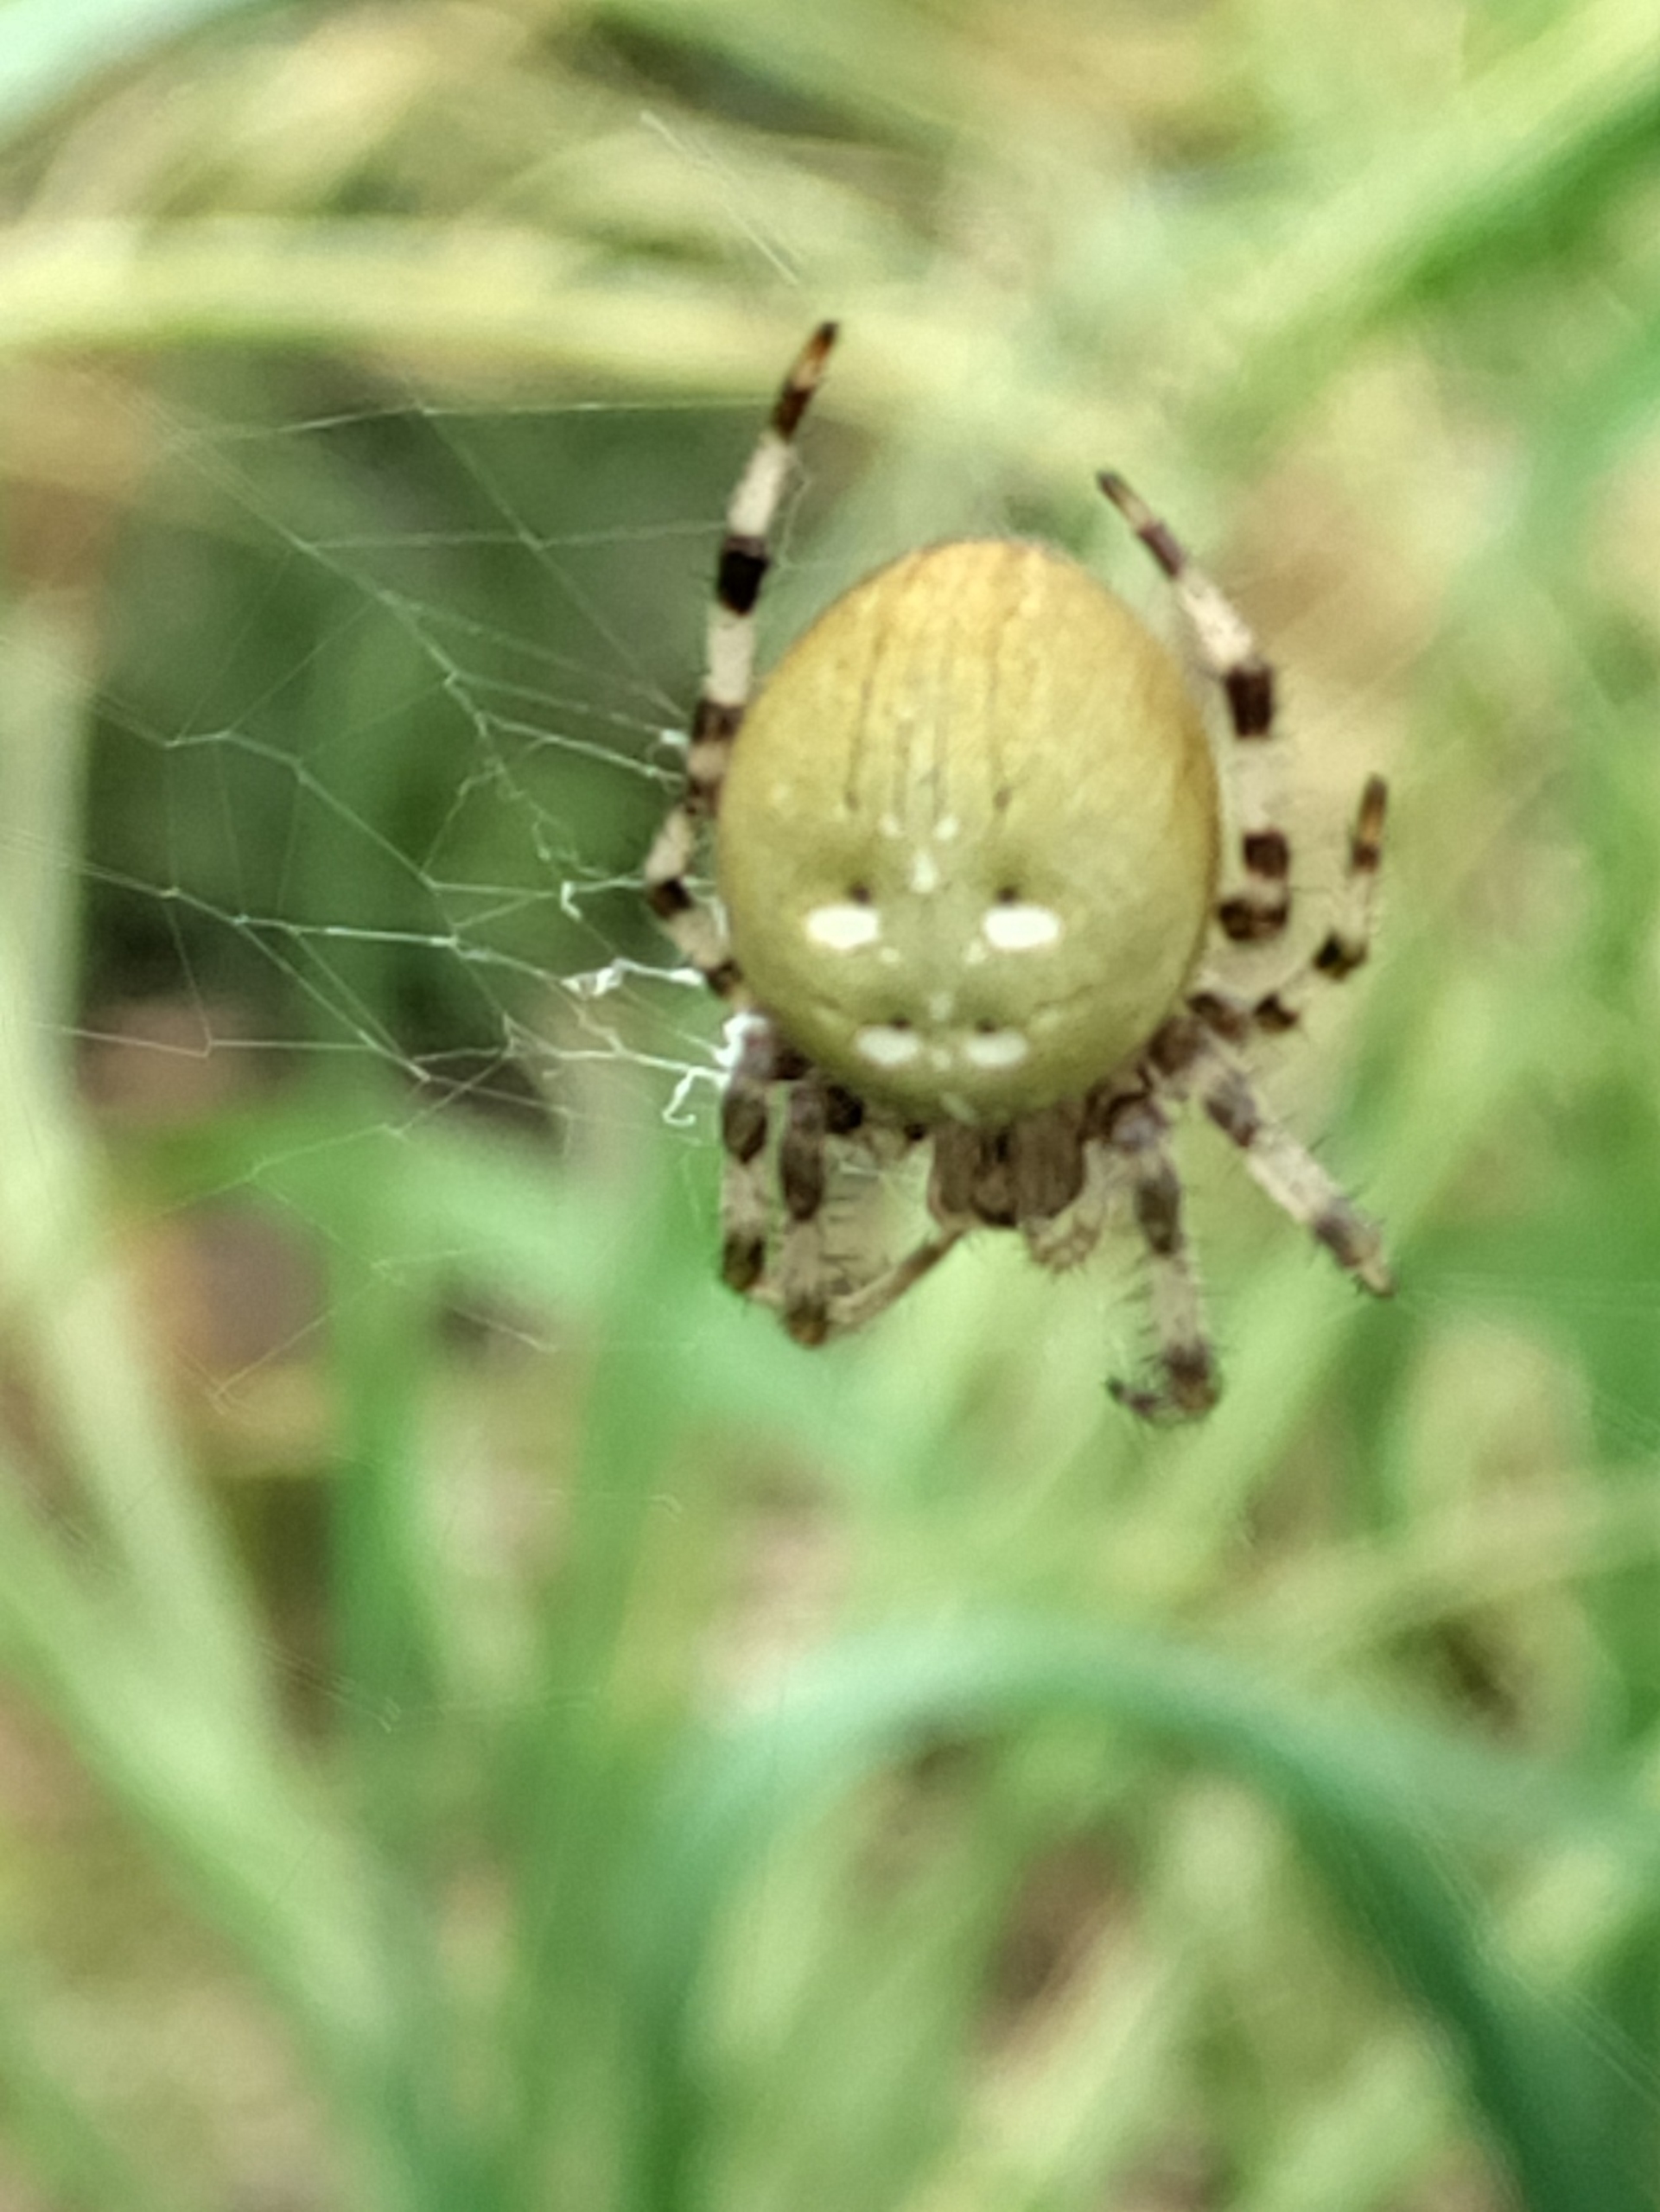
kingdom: Animalia
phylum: Arthropoda
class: Arachnida
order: Araneae
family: Araneidae
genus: Araneus
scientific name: Araneus quadratus
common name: Kvadratedderkop
